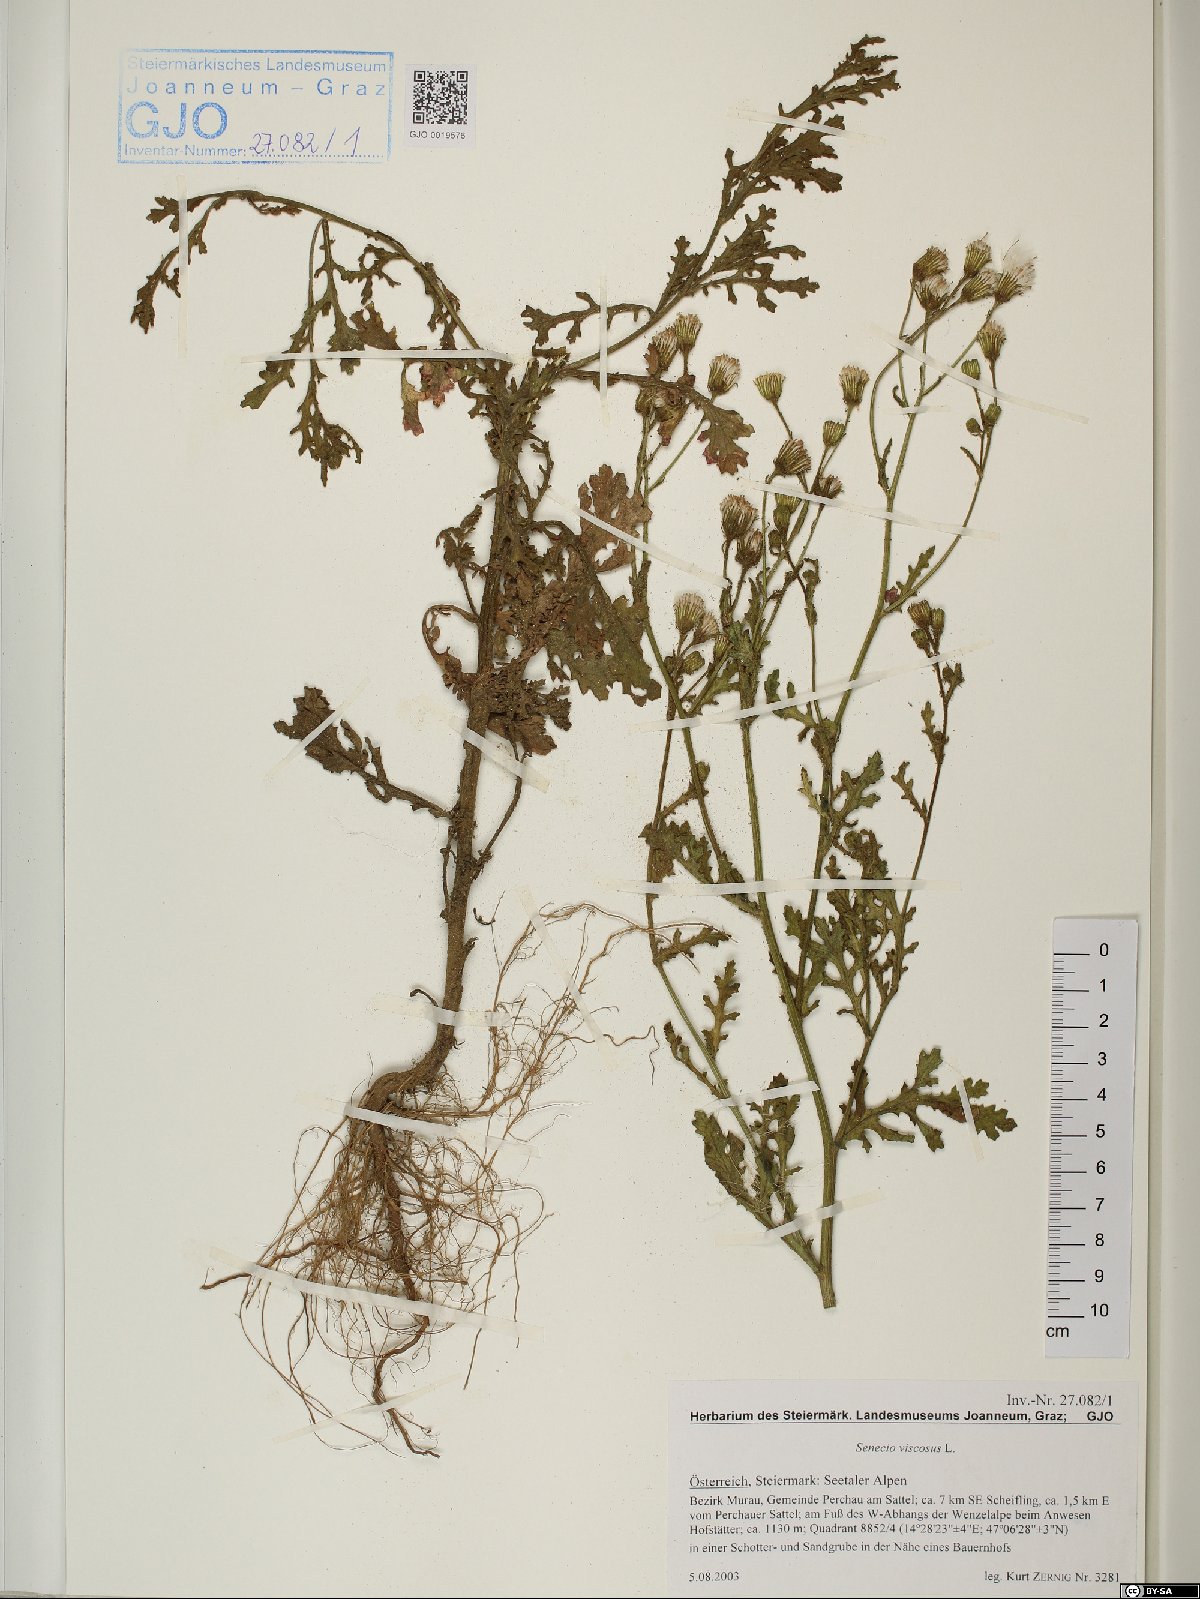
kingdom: Plantae
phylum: Tracheophyta
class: Magnoliopsida
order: Asterales
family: Asteraceae
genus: Senecio
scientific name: Senecio viscosus
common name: Sticky groundsel
